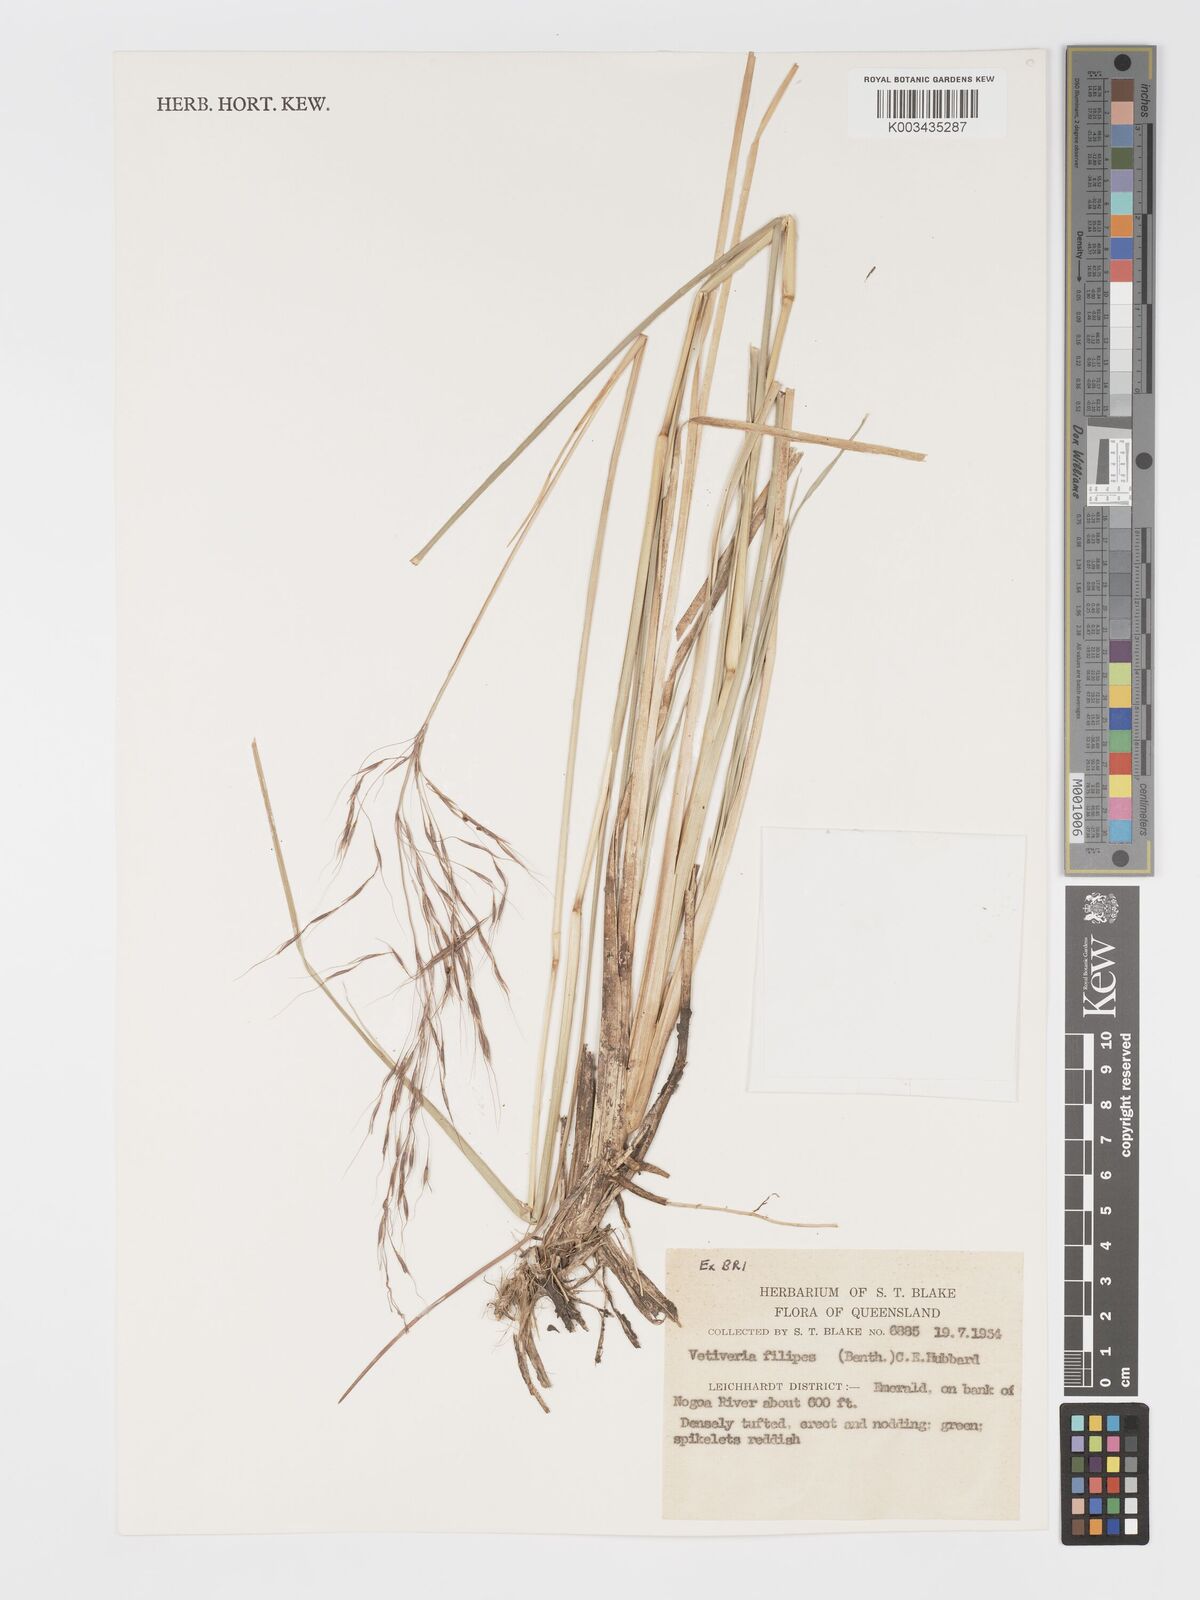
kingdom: Plantae
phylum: Tracheophyta
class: Liliopsida
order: Poales
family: Poaceae
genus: Chrysopogon
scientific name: Chrysopogon filipes
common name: Australian vetiver
